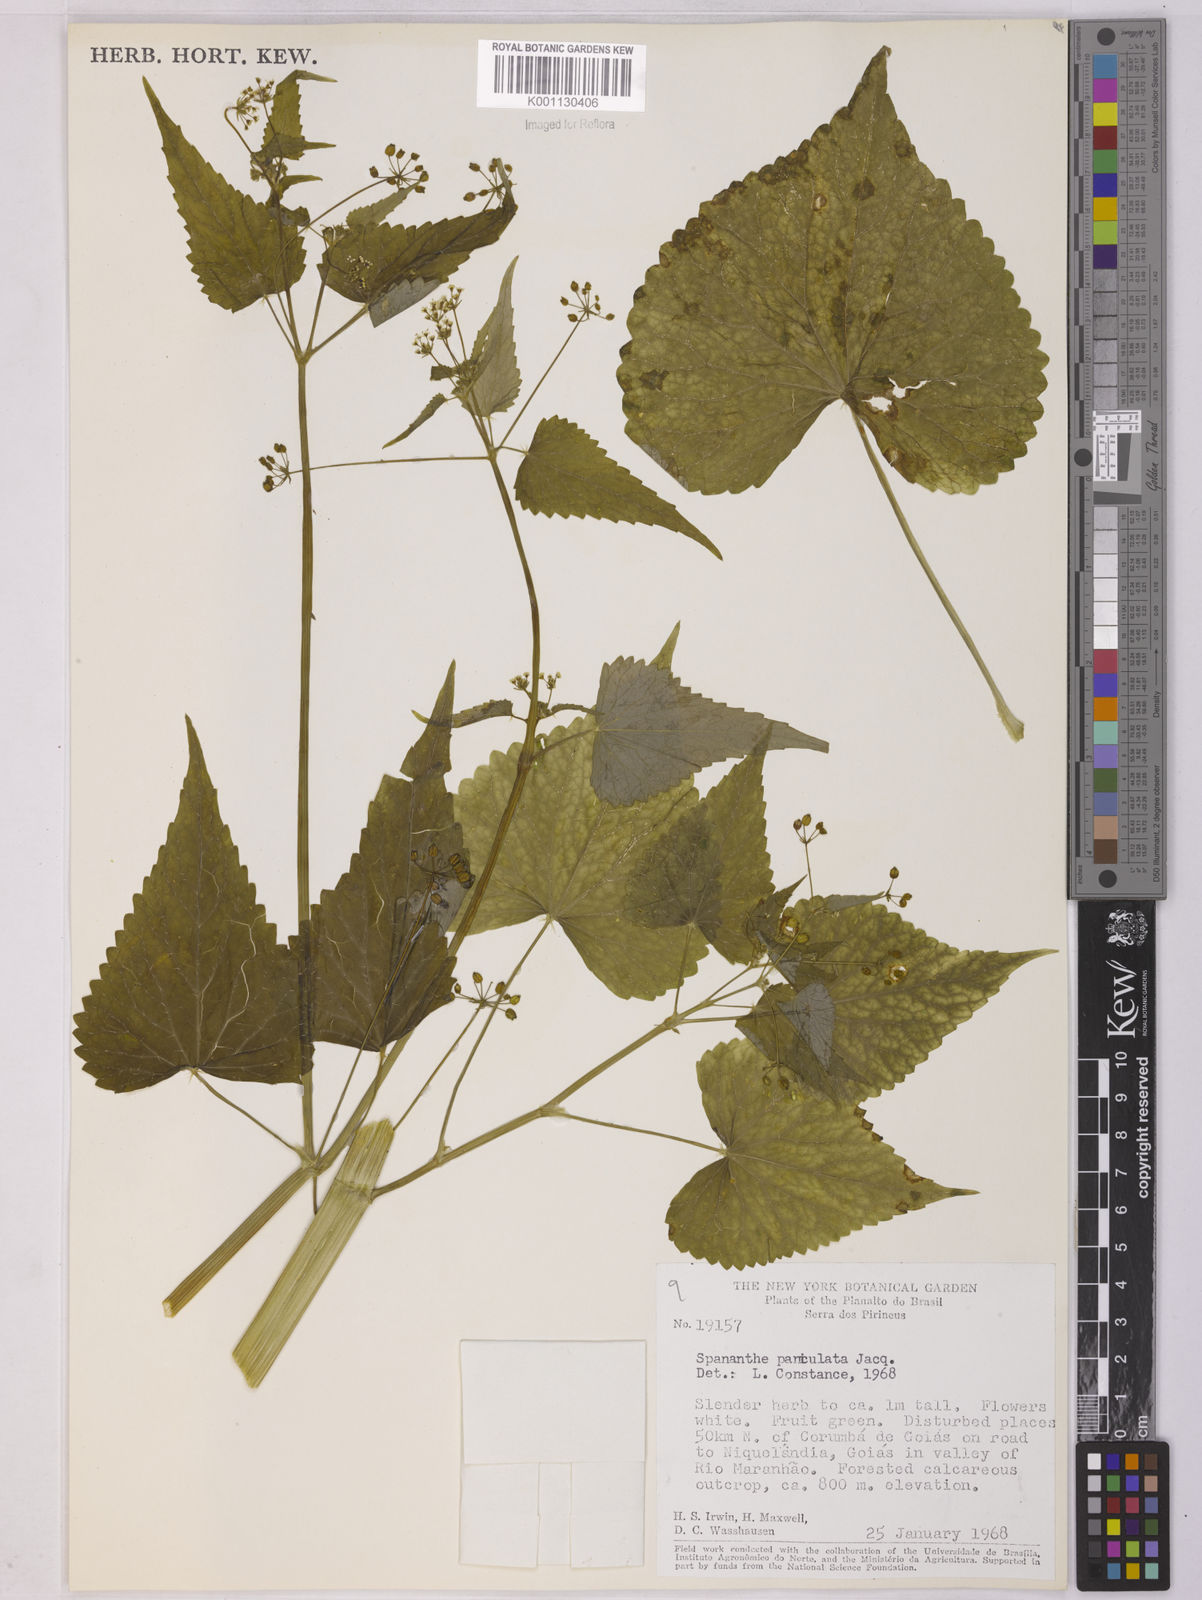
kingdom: Plantae
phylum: Tracheophyta
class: Magnoliopsida
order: Apiales
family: Apiaceae
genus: Spananthe
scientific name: Spananthe paniculata
